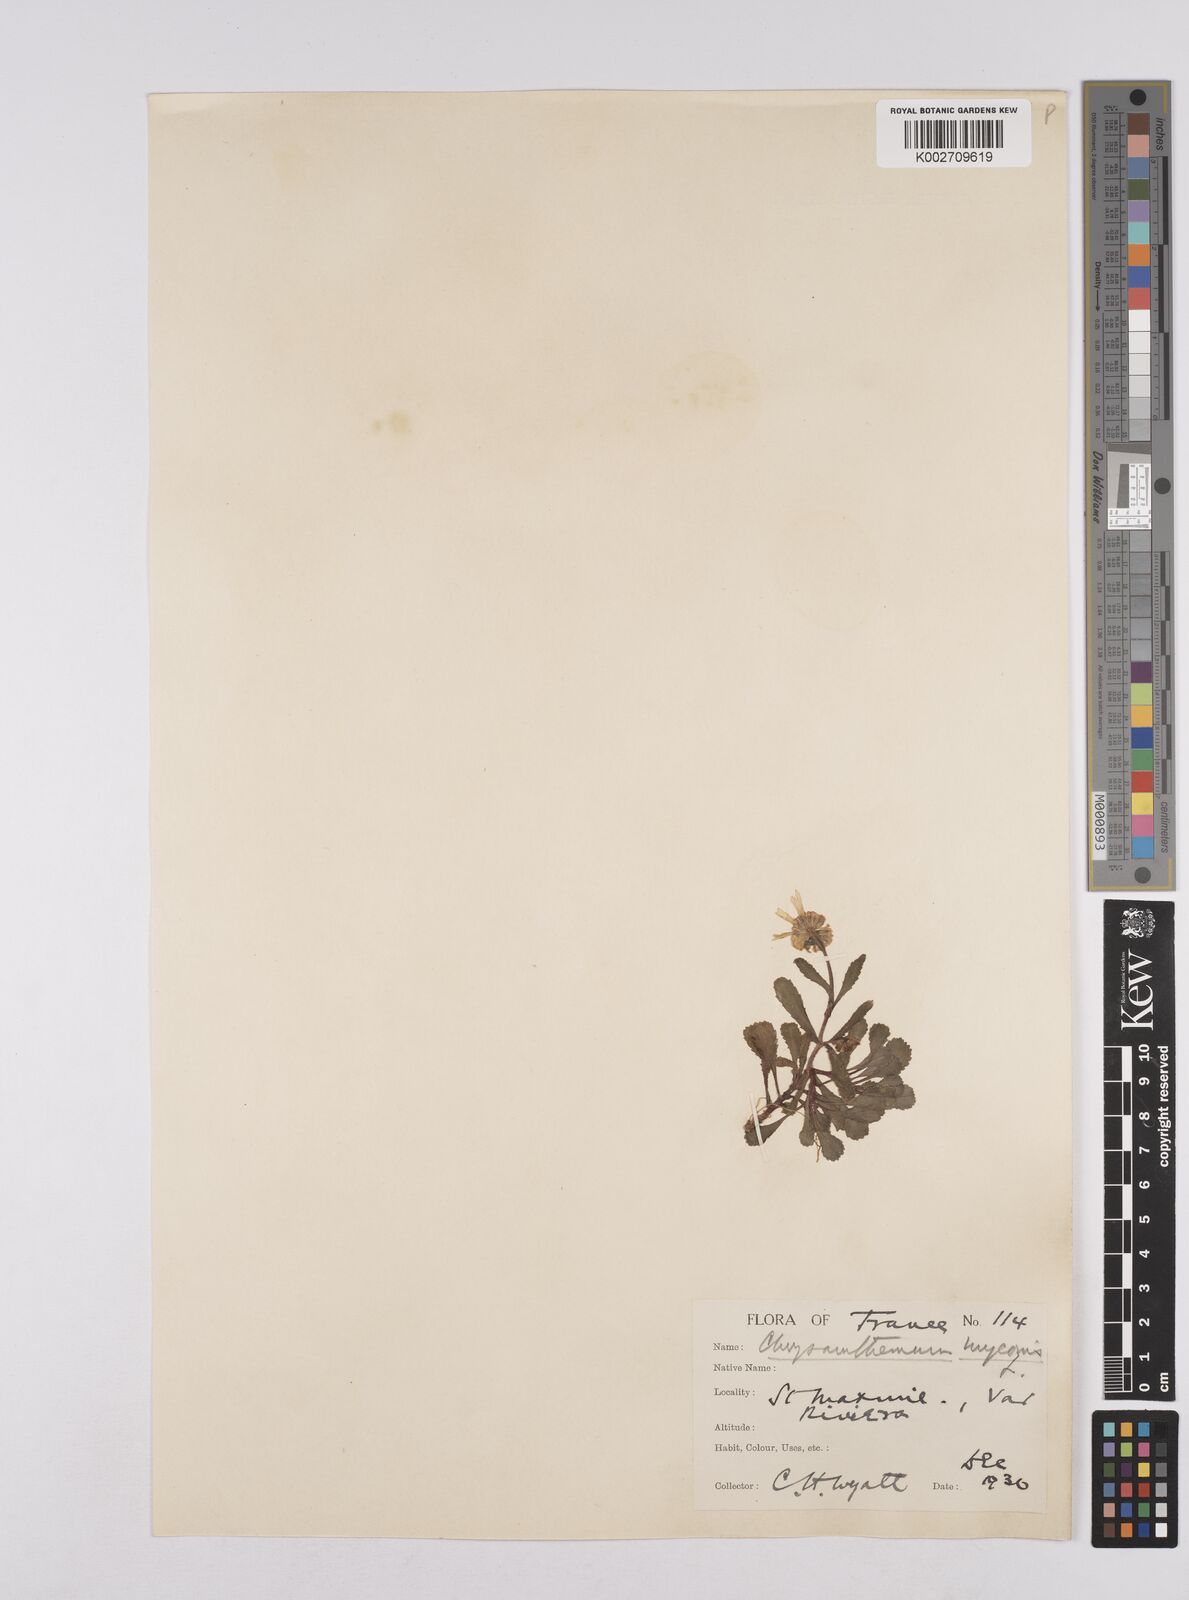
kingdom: Plantae
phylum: Tracheophyta
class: Magnoliopsida
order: Asterales
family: Asteraceae
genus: Coleostephus
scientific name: Coleostephus myconis
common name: Mediterranean marigold
